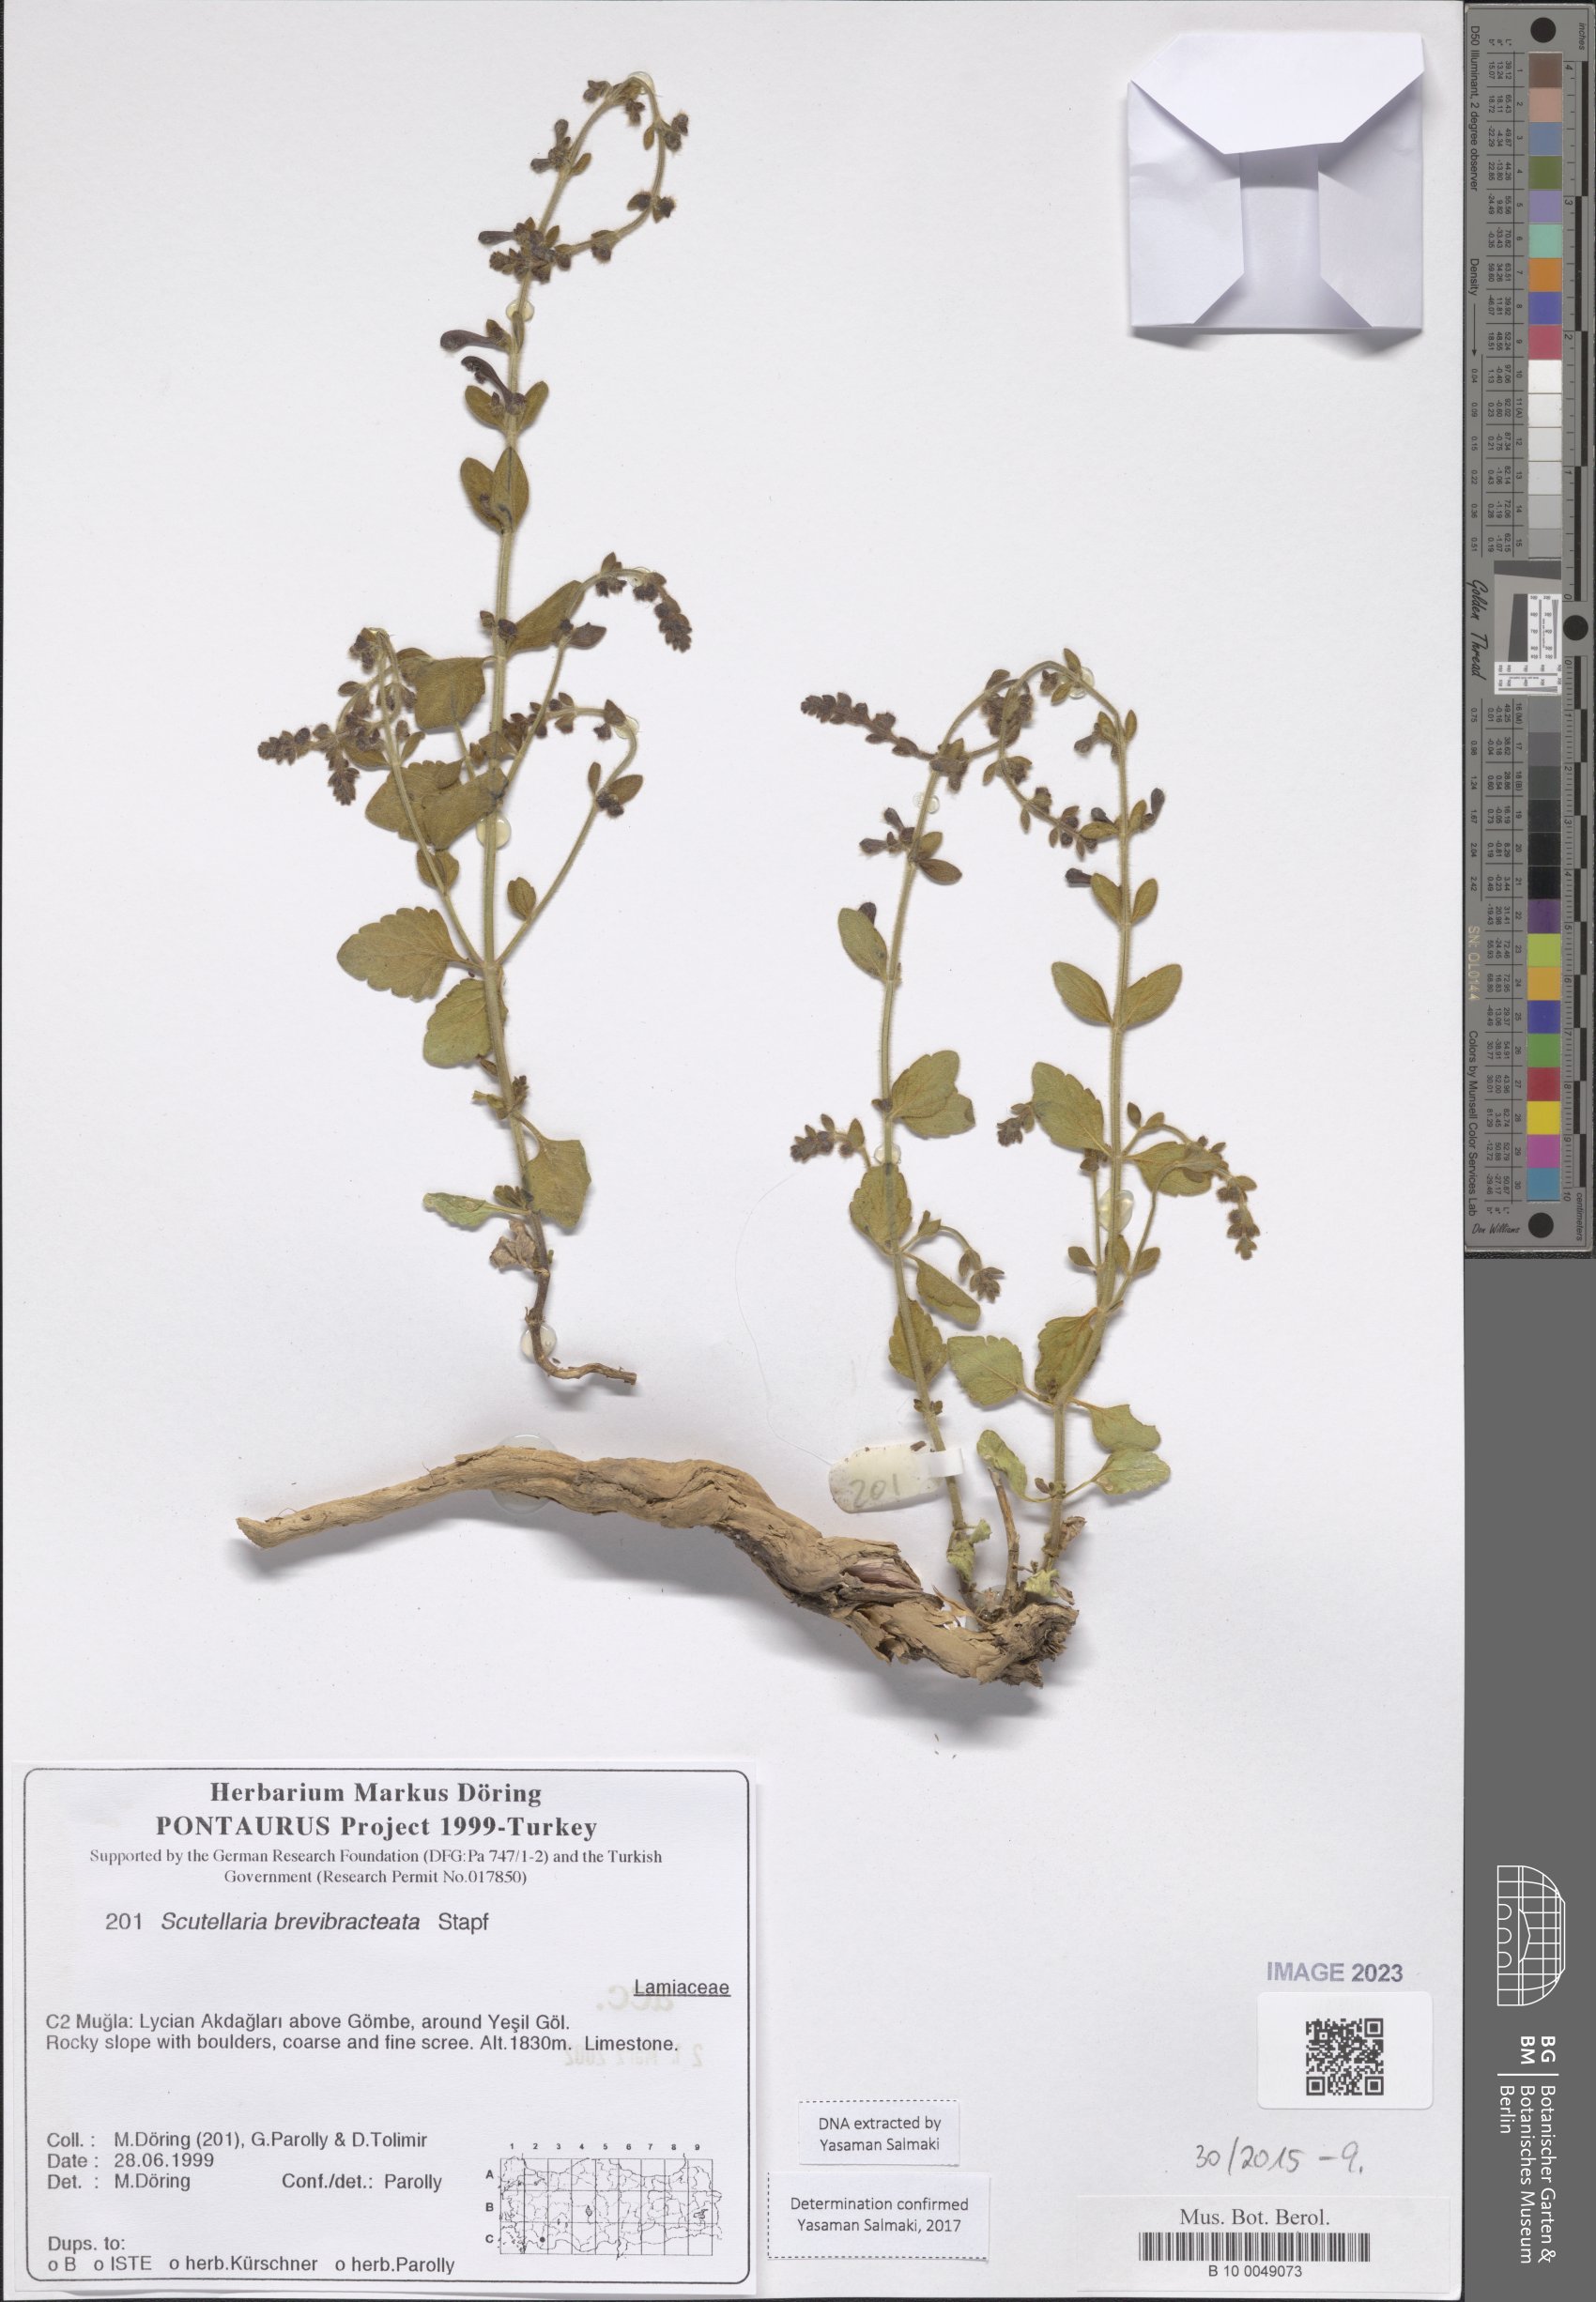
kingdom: Plantae
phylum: Tracheophyta
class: Magnoliopsida
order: Lamiales
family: Lamiaceae
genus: Scutellaria
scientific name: Scutellaria brevibracteata
